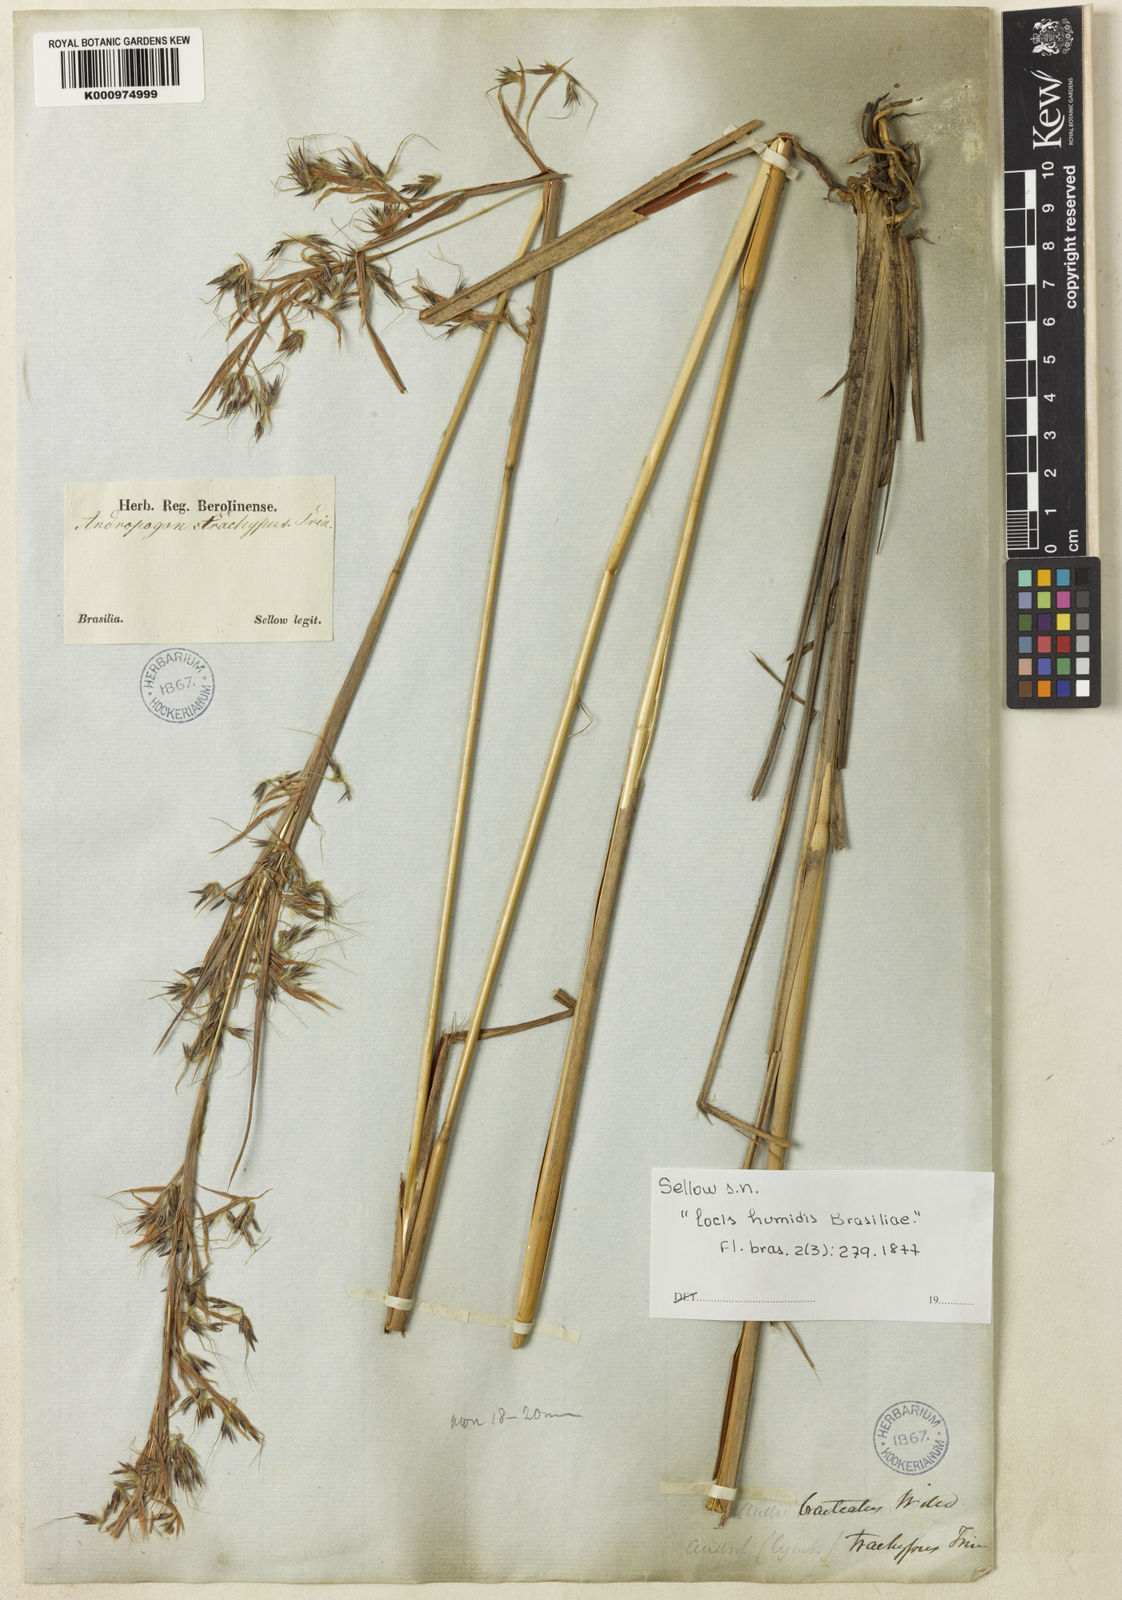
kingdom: Plantae
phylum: Tracheophyta
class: Liliopsida
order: Poales
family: Poaceae
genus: Hyparrhenia
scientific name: Hyparrhenia bracteata
